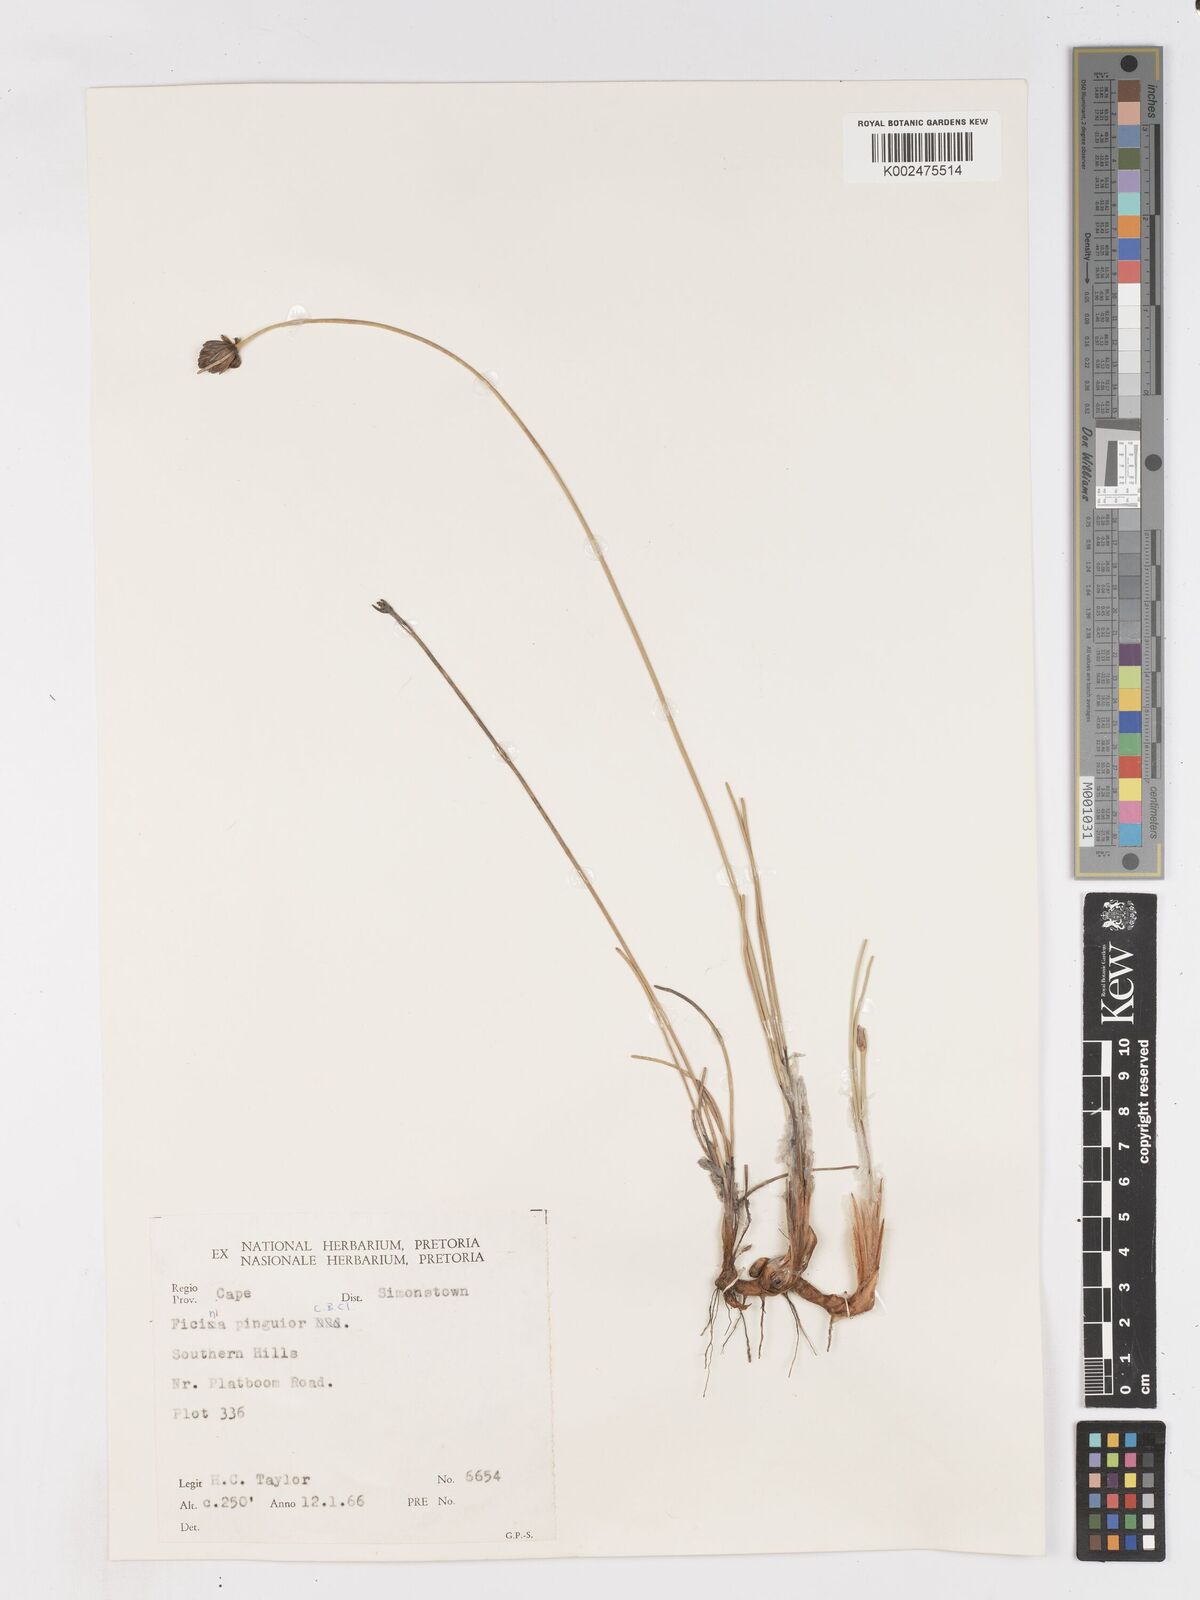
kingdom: Plantae
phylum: Tracheophyta
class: Liliopsida
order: Poales
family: Cyperaceae
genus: Ficinia
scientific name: Ficinia pinguior
